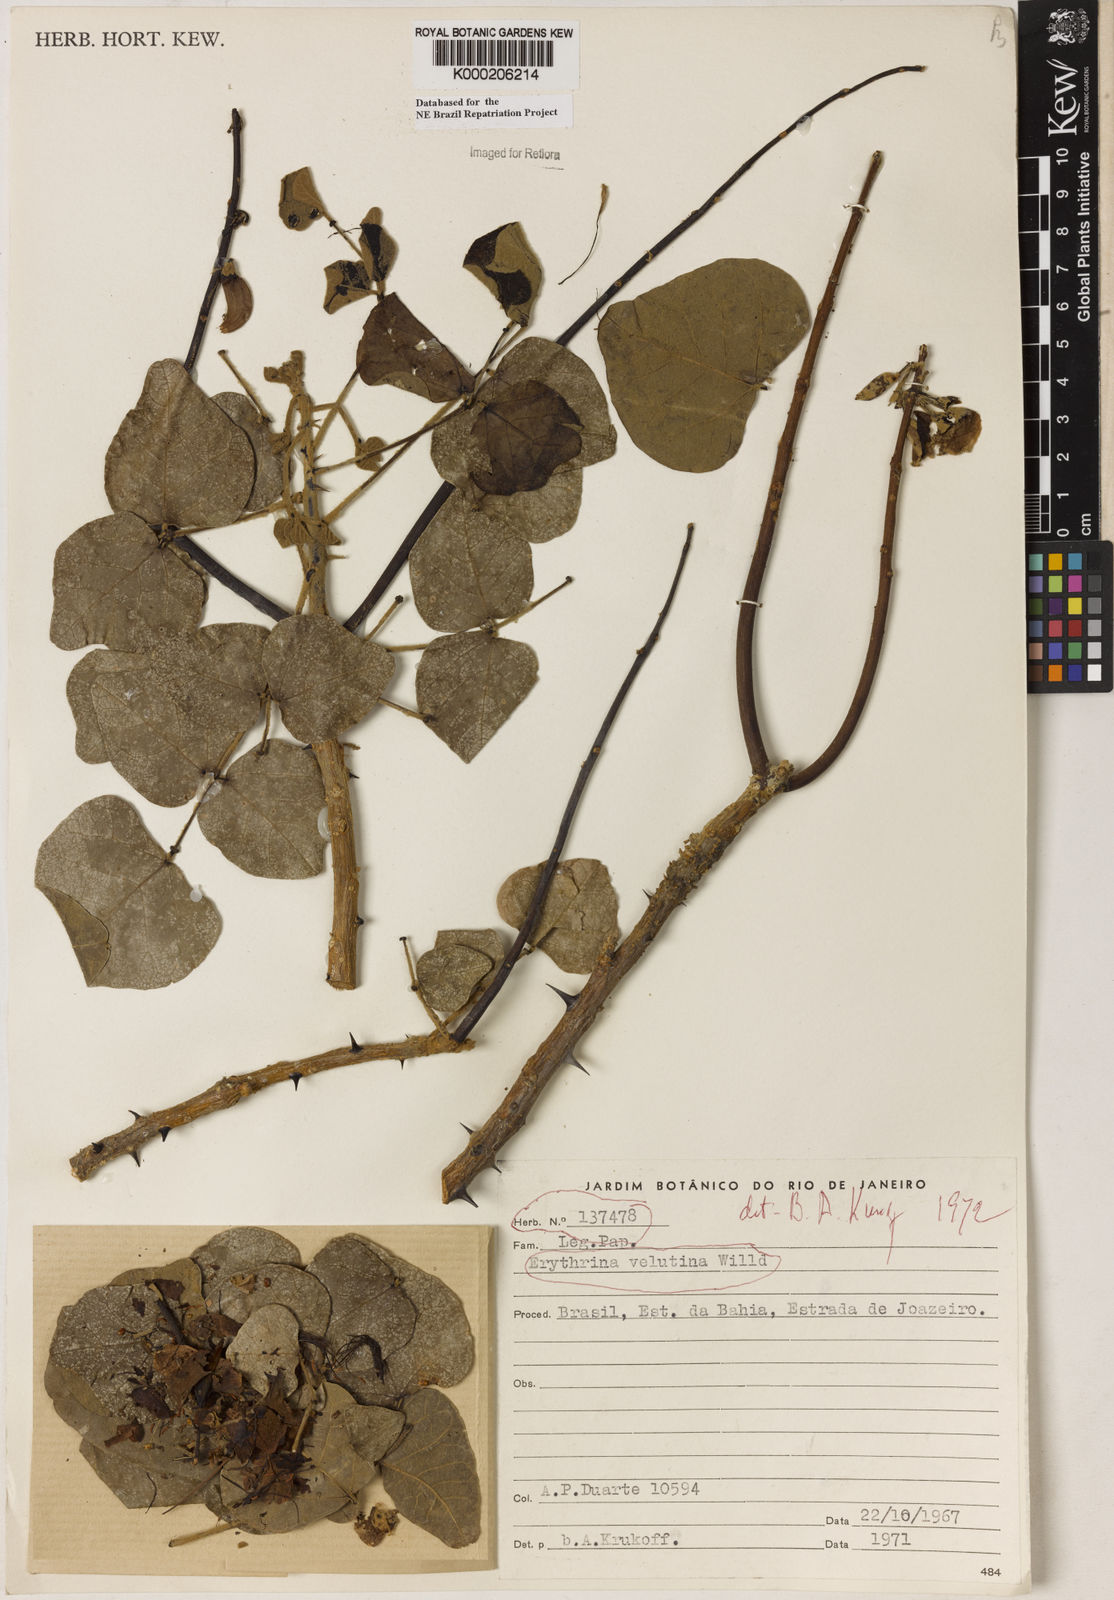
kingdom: Plantae
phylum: Tracheophyta
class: Magnoliopsida
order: Fabales
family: Fabaceae
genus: Erythrina
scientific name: Erythrina velutina
